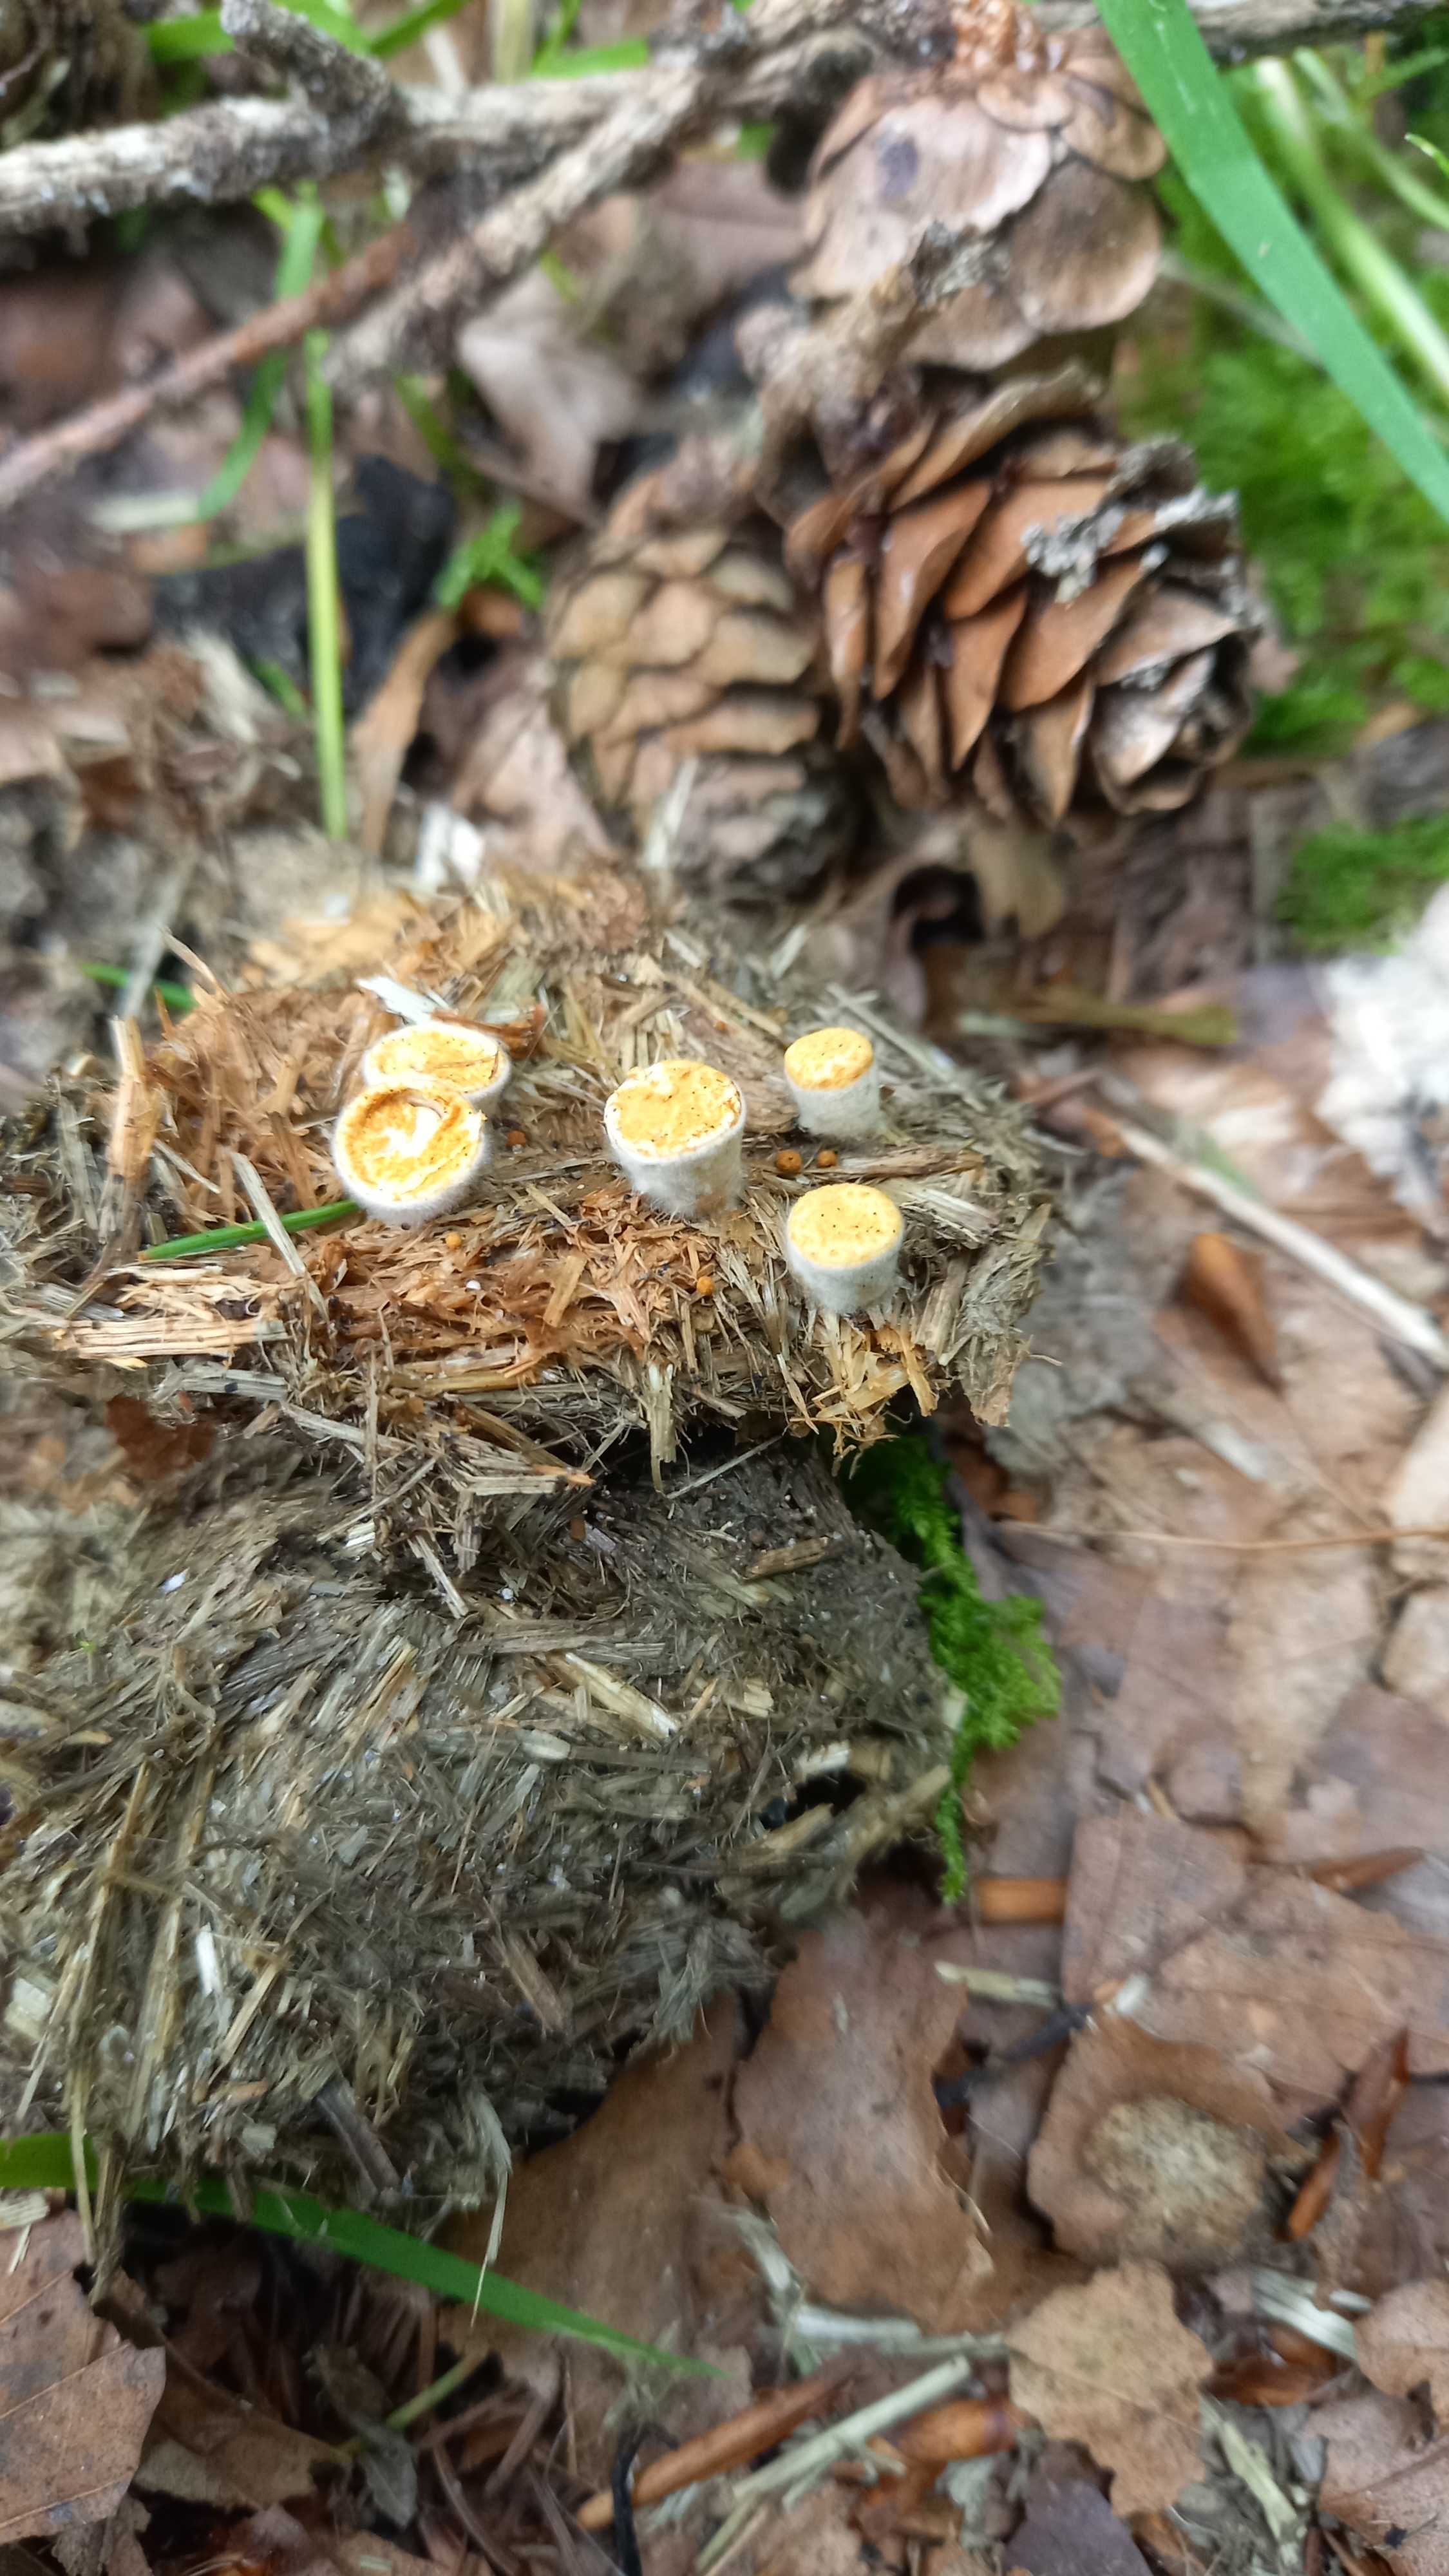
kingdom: Fungi
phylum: Basidiomycota
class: Agaricomycetes
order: Agaricales
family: Nidulariaceae
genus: Crucibulum
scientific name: Crucibulum crucibuliforme
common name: krukkesvamp
